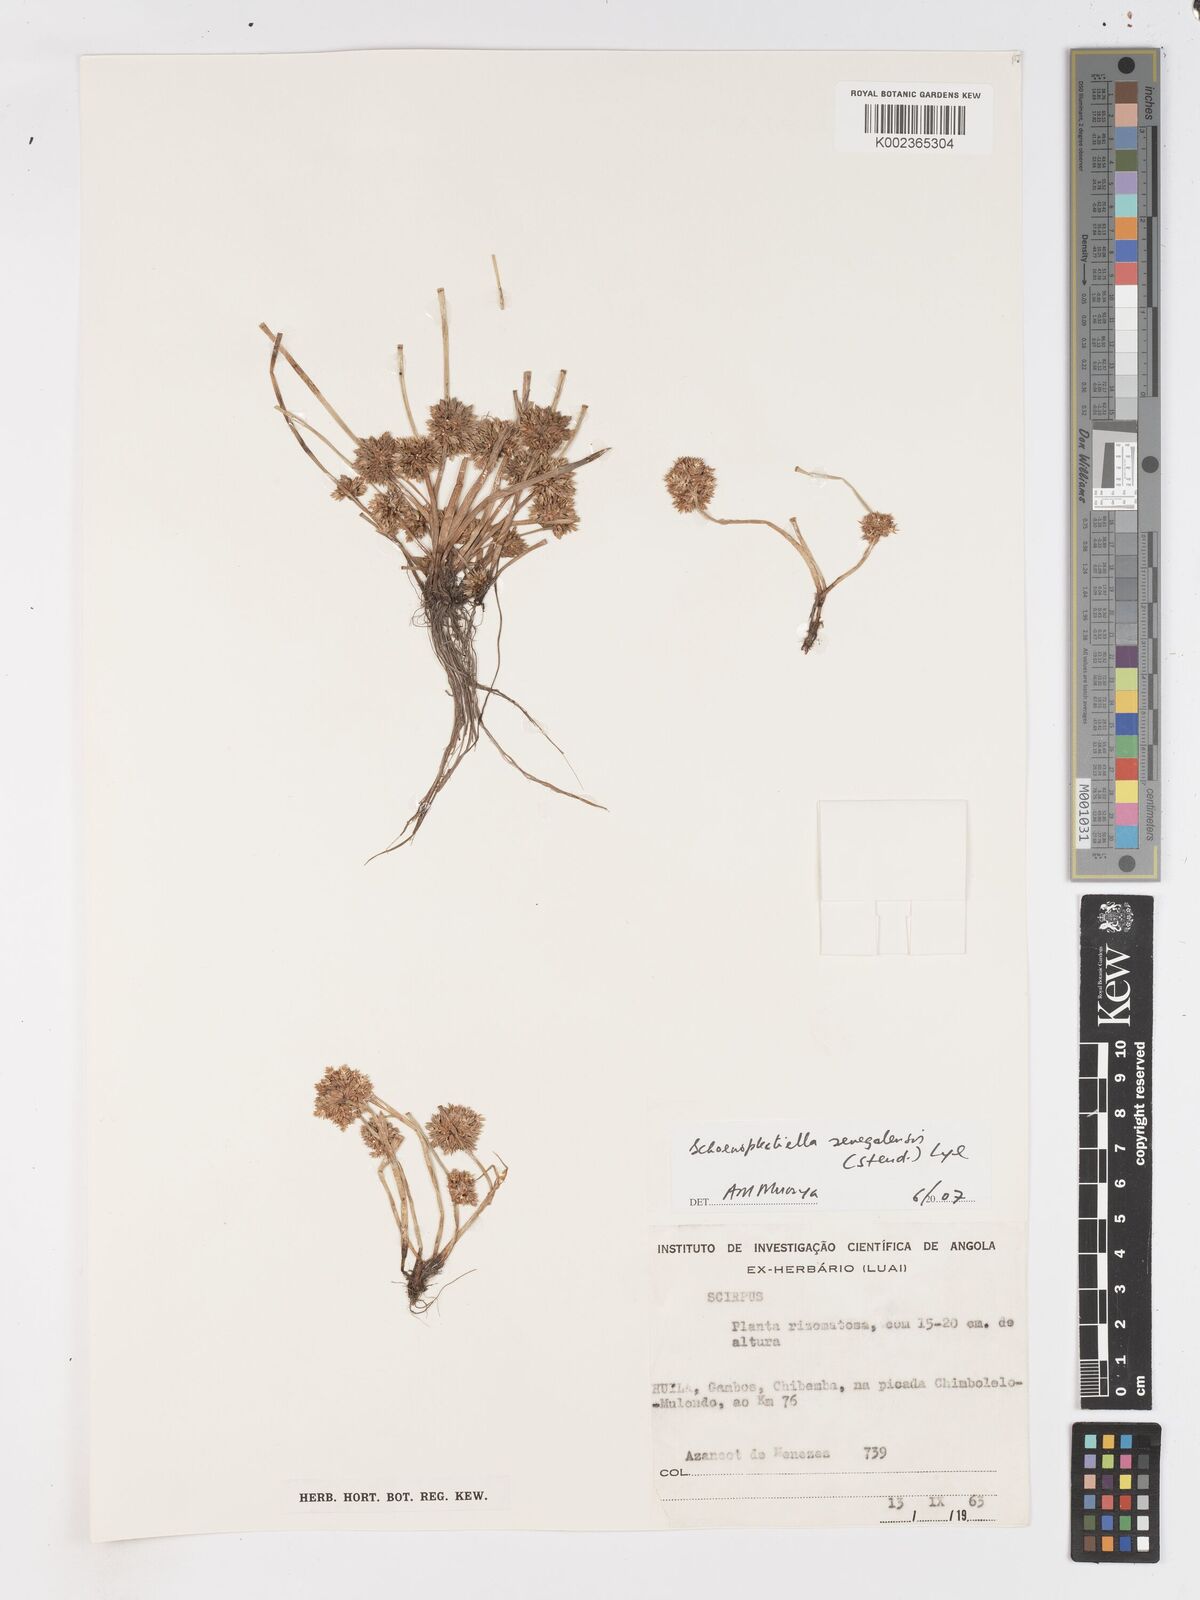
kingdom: Plantae
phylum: Tracheophyta
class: Liliopsida
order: Poales
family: Cyperaceae
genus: Schoenoplectiella
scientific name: Schoenoplectiella senegalensis
